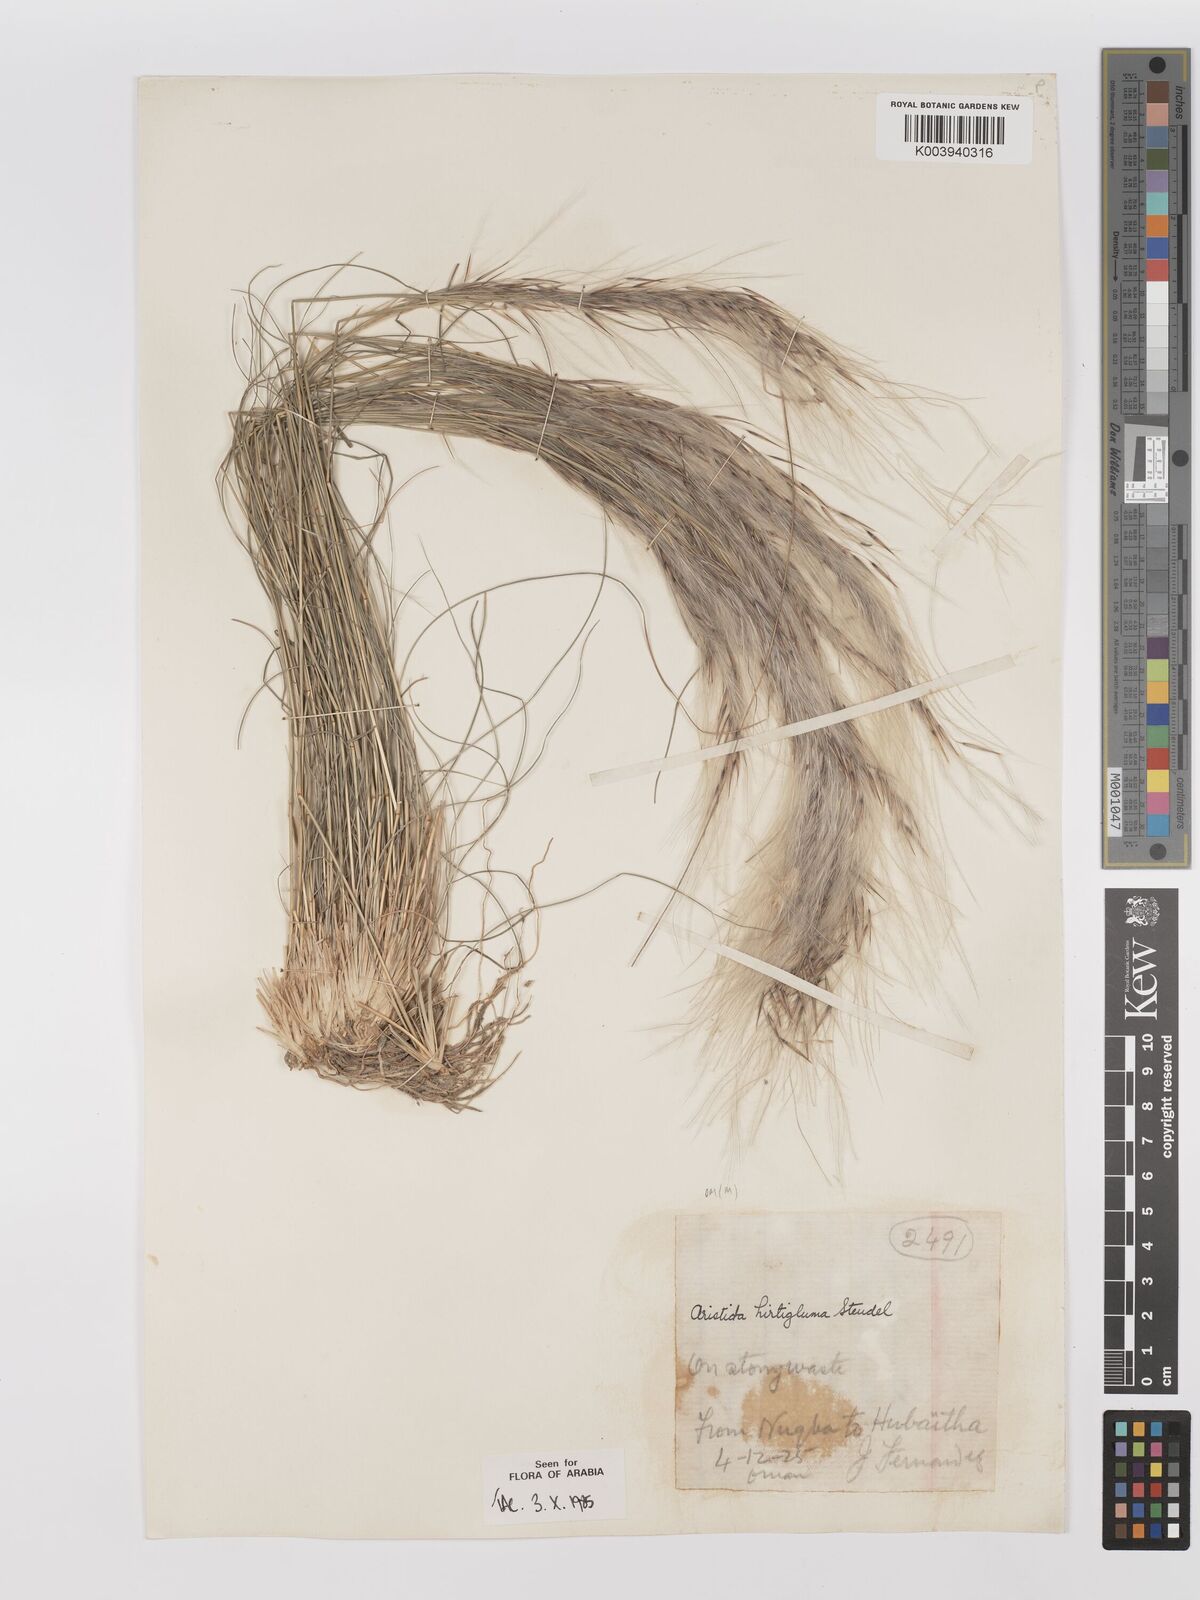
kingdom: Plantae
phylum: Tracheophyta
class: Liliopsida
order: Poales
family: Poaceae
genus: Stipagrostis
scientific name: Stipagrostis hirtigluma
